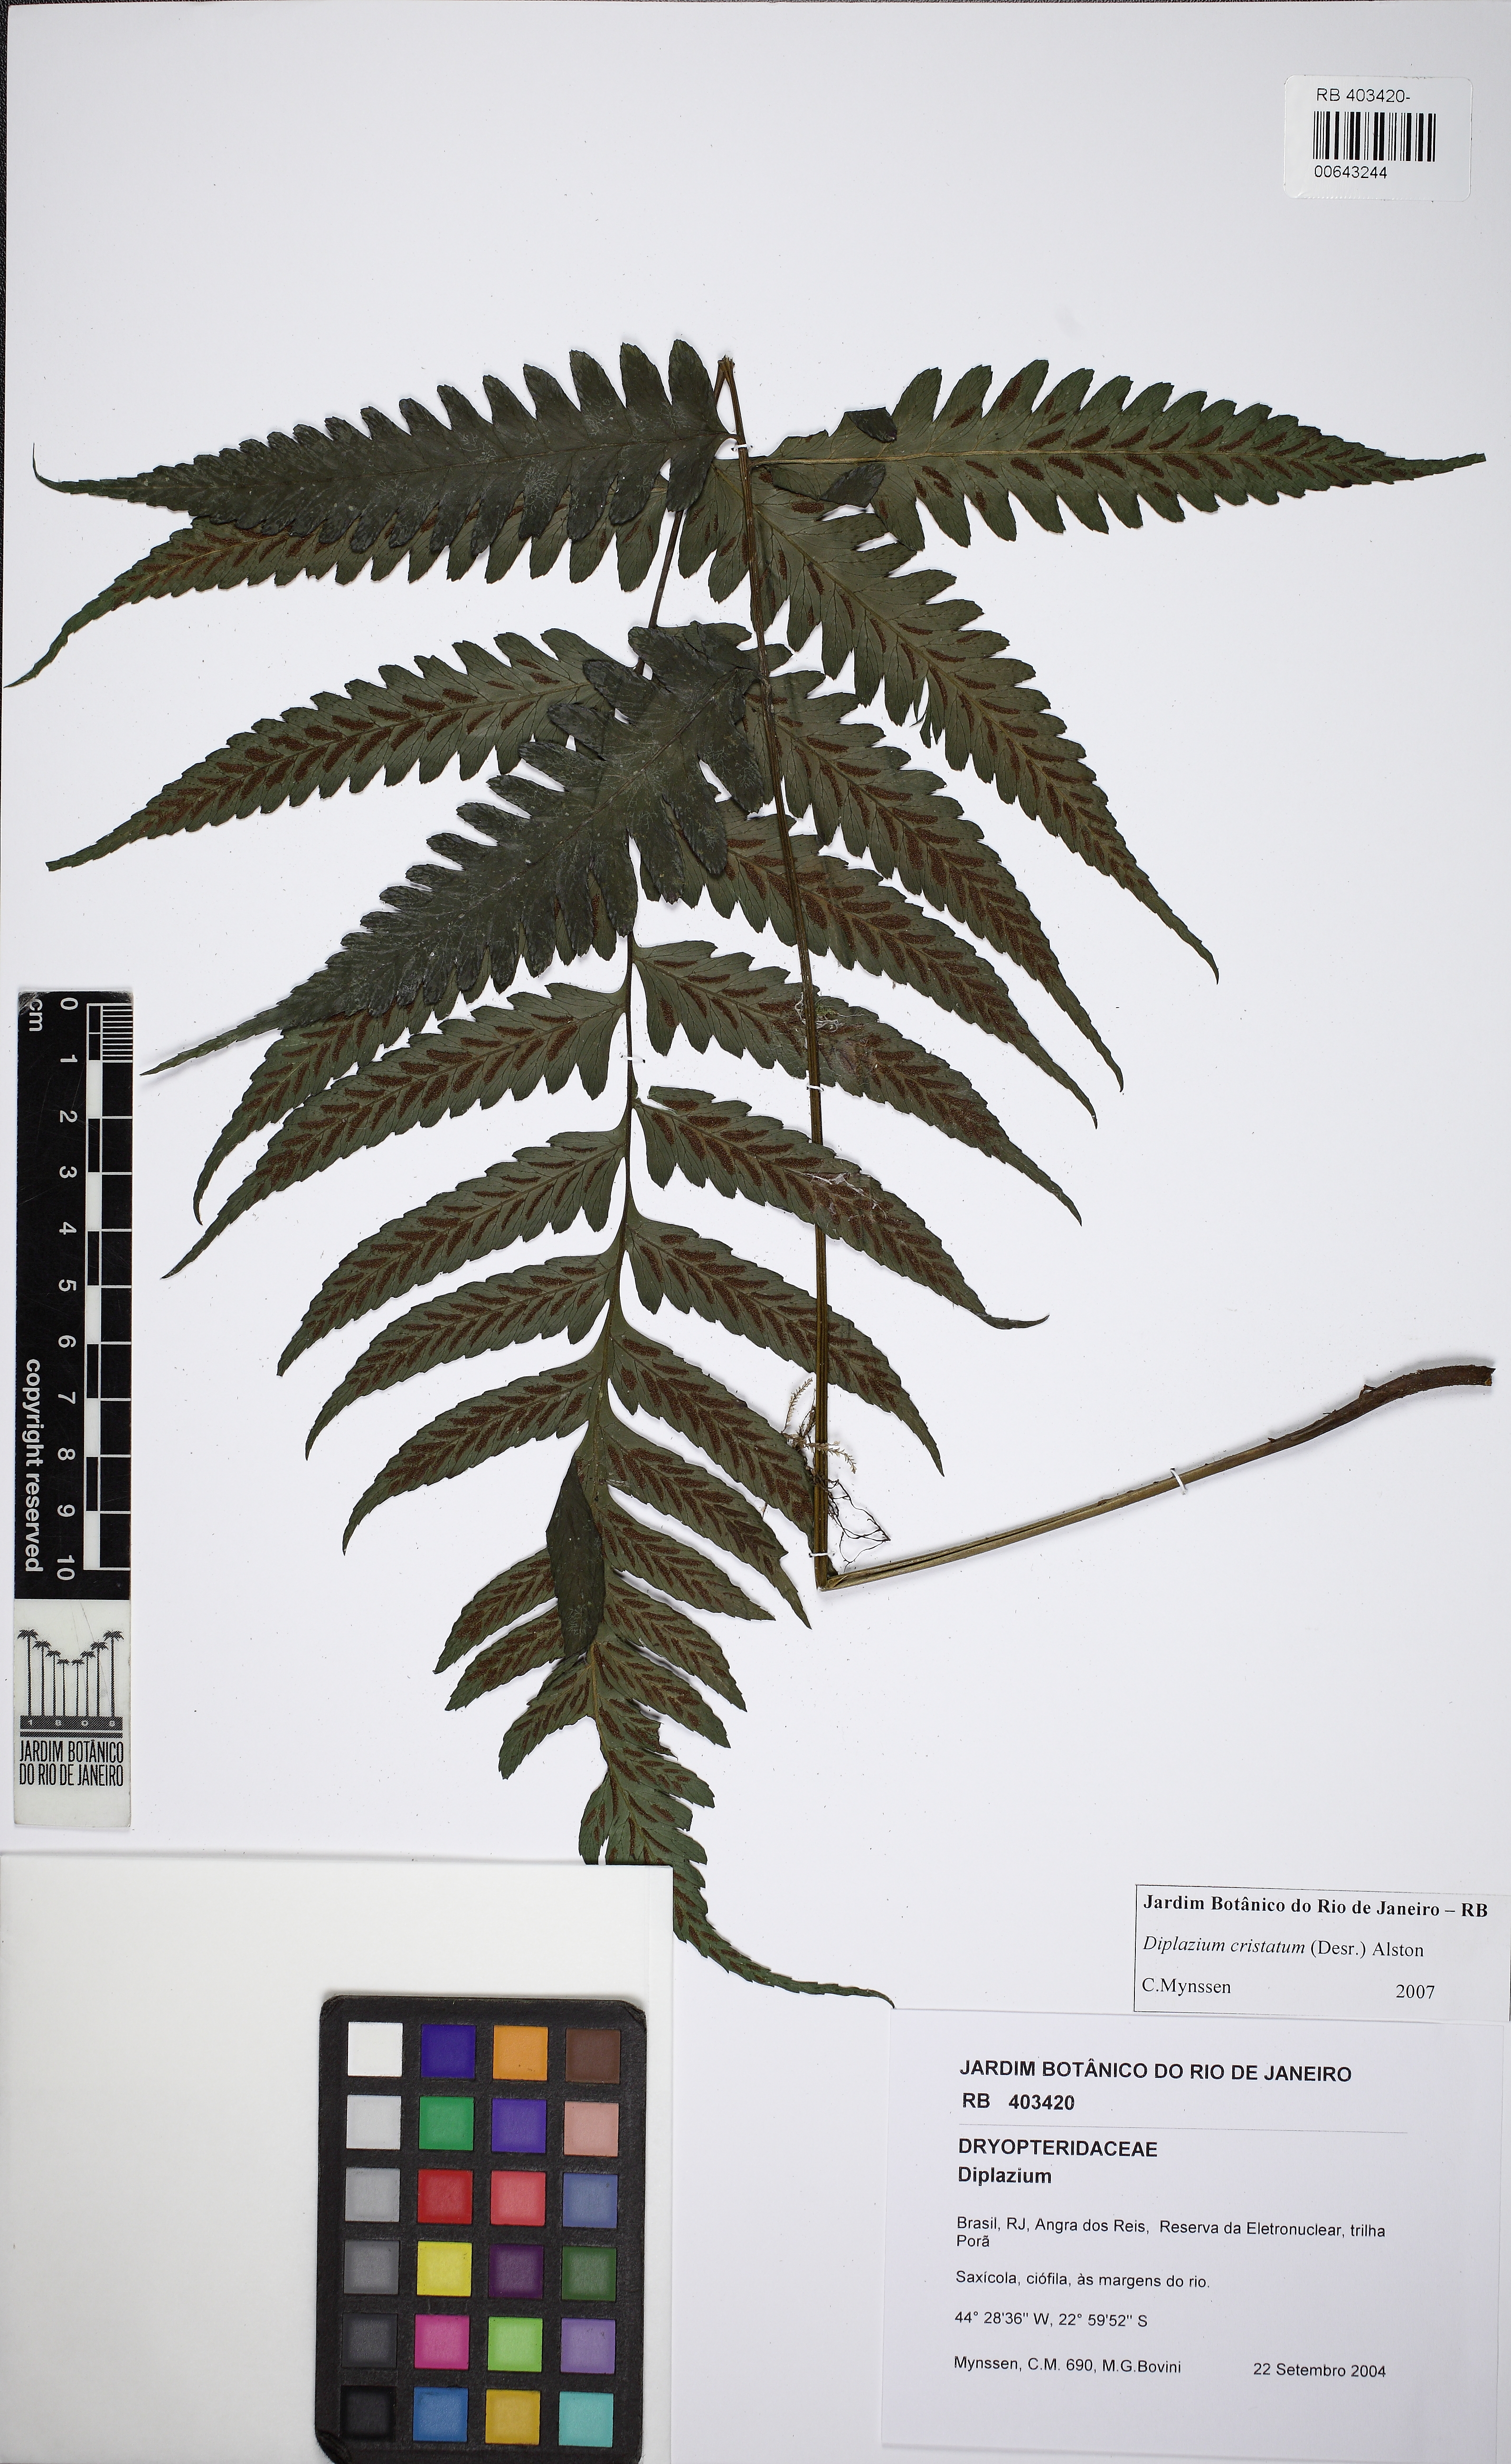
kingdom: Plantae
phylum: Tracheophyta
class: Polypodiopsida
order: Polypodiales
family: Athyriaceae
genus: Diplazium
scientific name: Diplazium cristatum
